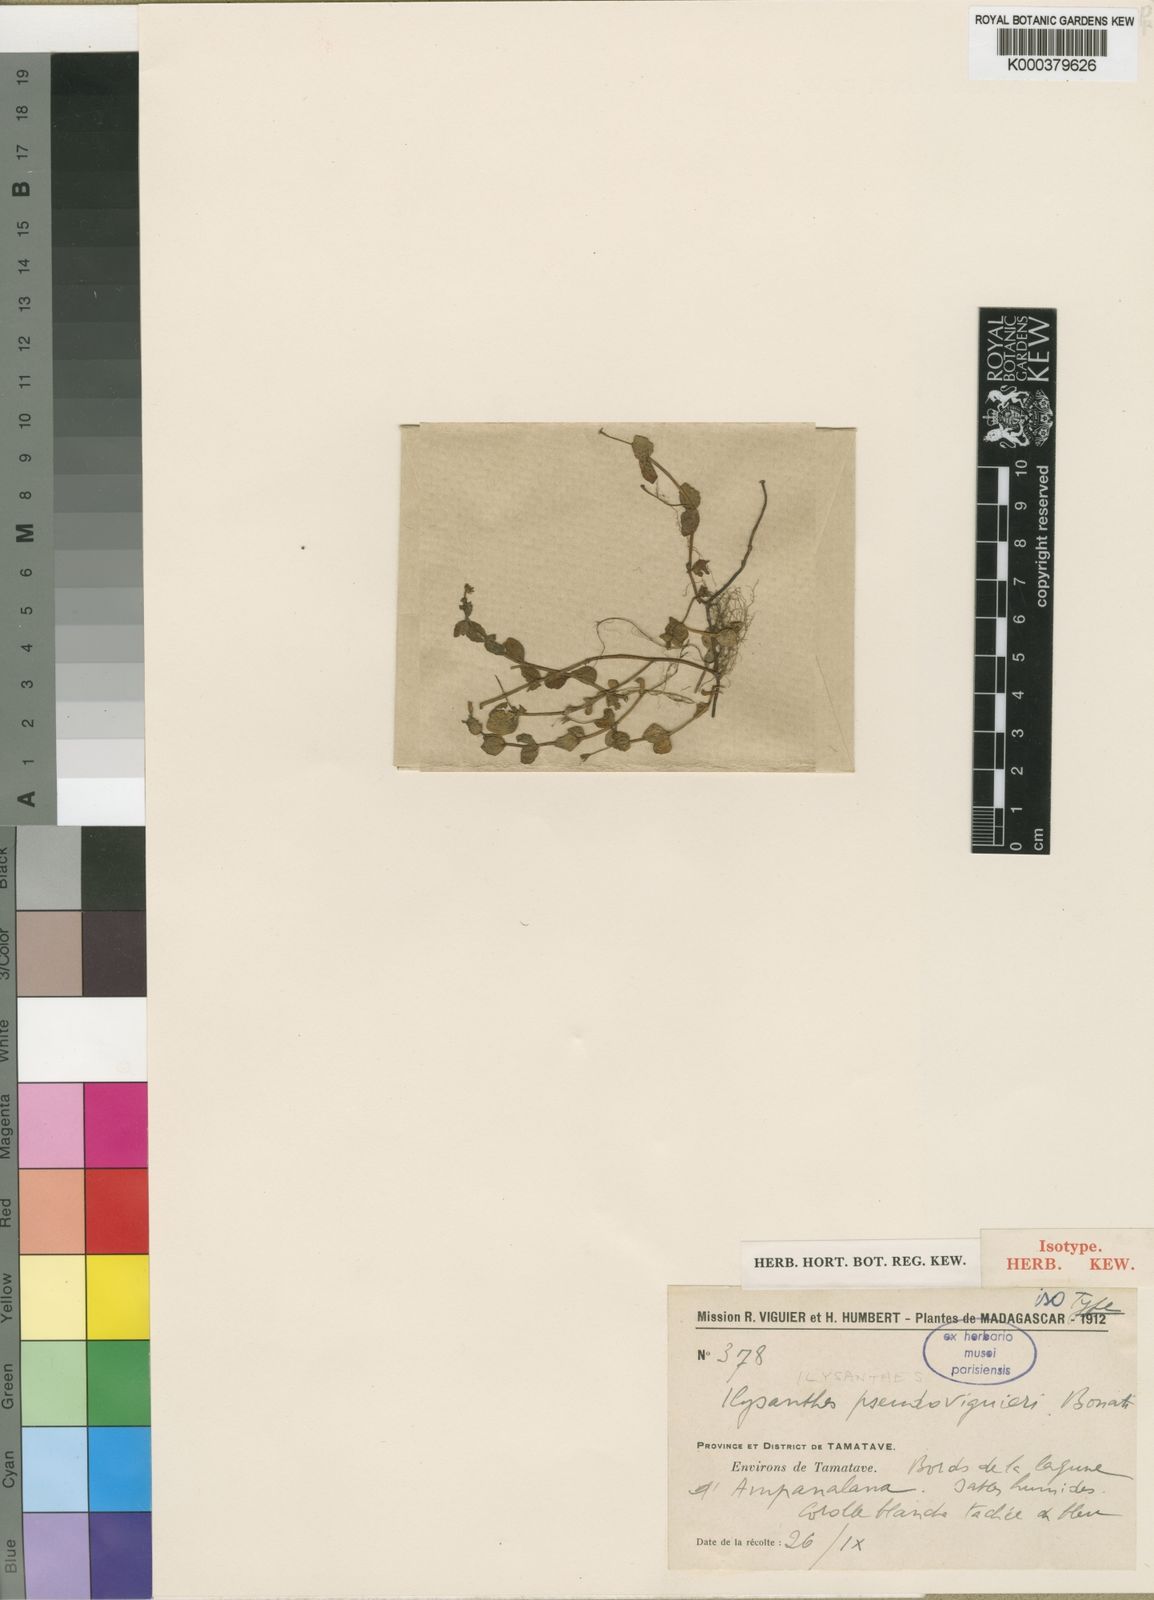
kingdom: Plantae
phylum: Tracheophyta
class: Magnoliopsida
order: Lamiales
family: Linderniaceae
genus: Lindernia
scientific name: Lindernia
